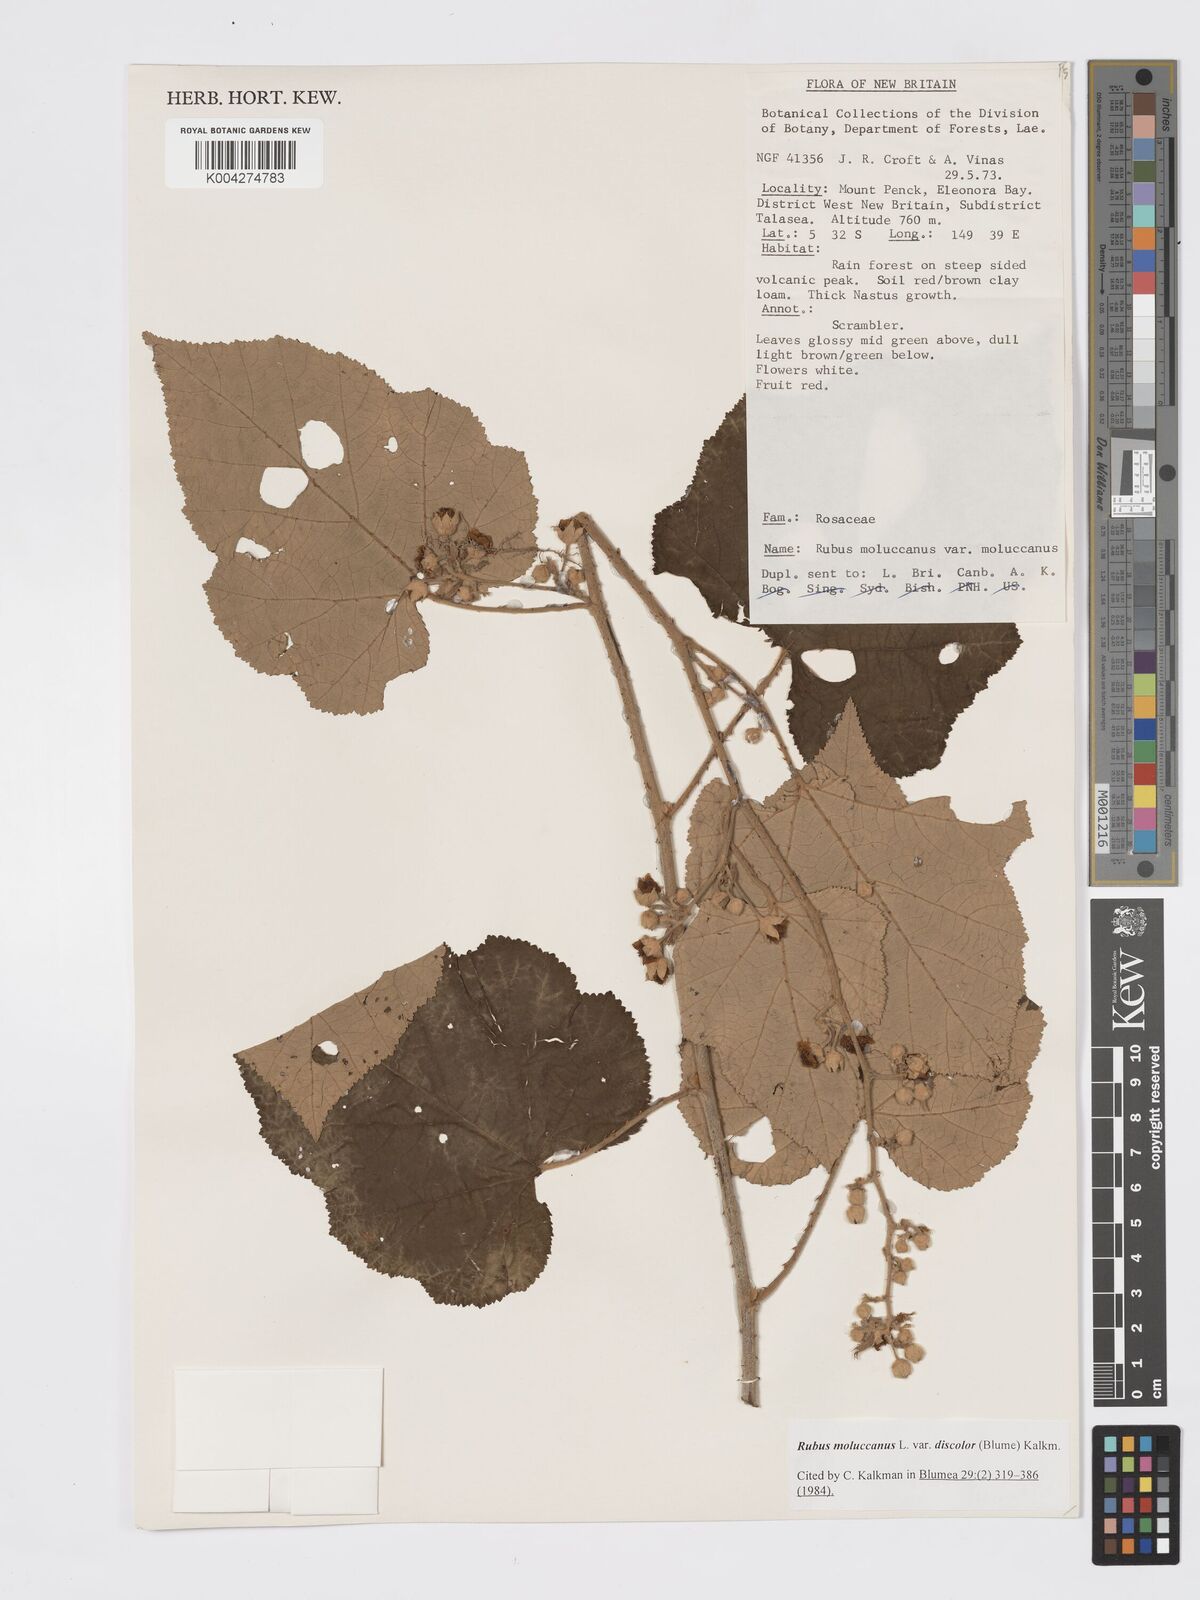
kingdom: Plantae
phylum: Tracheophyta
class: Magnoliopsida
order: Rosales
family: Rosaceae
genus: Rubus
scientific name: Rubus moluccanus
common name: Wild raspberry
